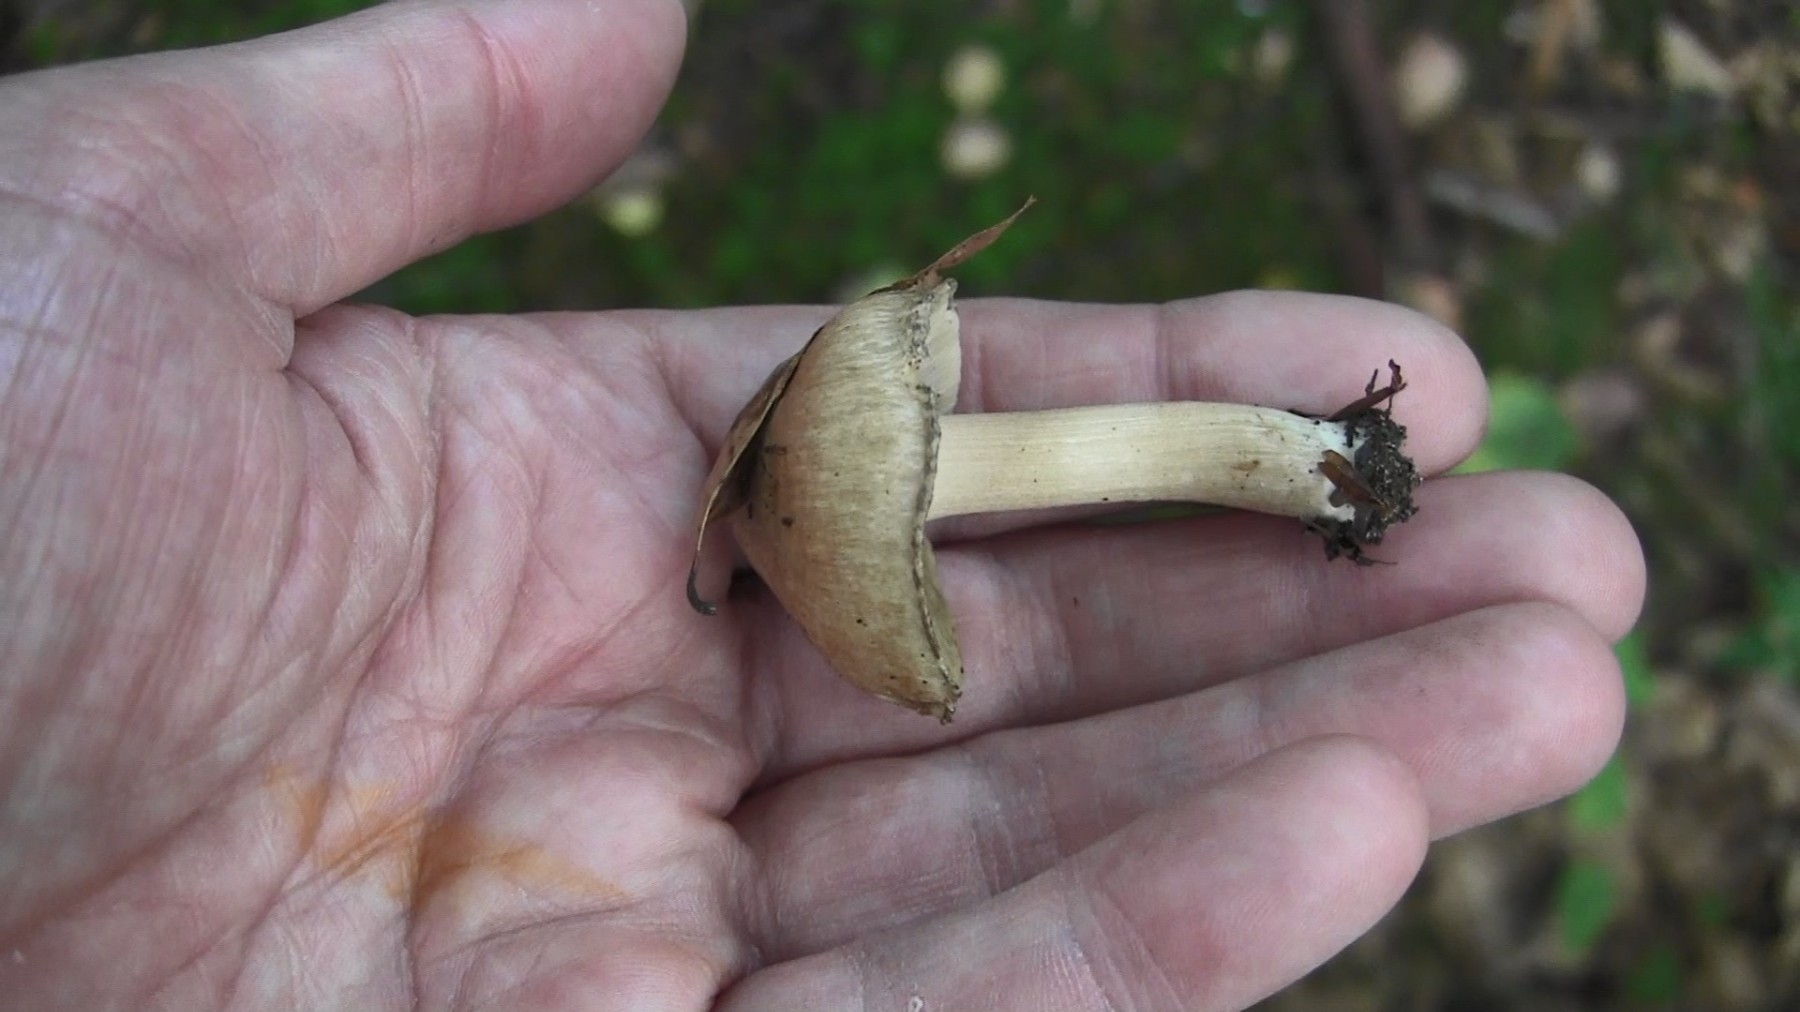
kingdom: Fungi
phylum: Basidiomycota
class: Agaricomycetes
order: Agaricales
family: Inocybaceae
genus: Inocybe
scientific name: Inocybe fraudans
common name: pæreduftende trævlhat
